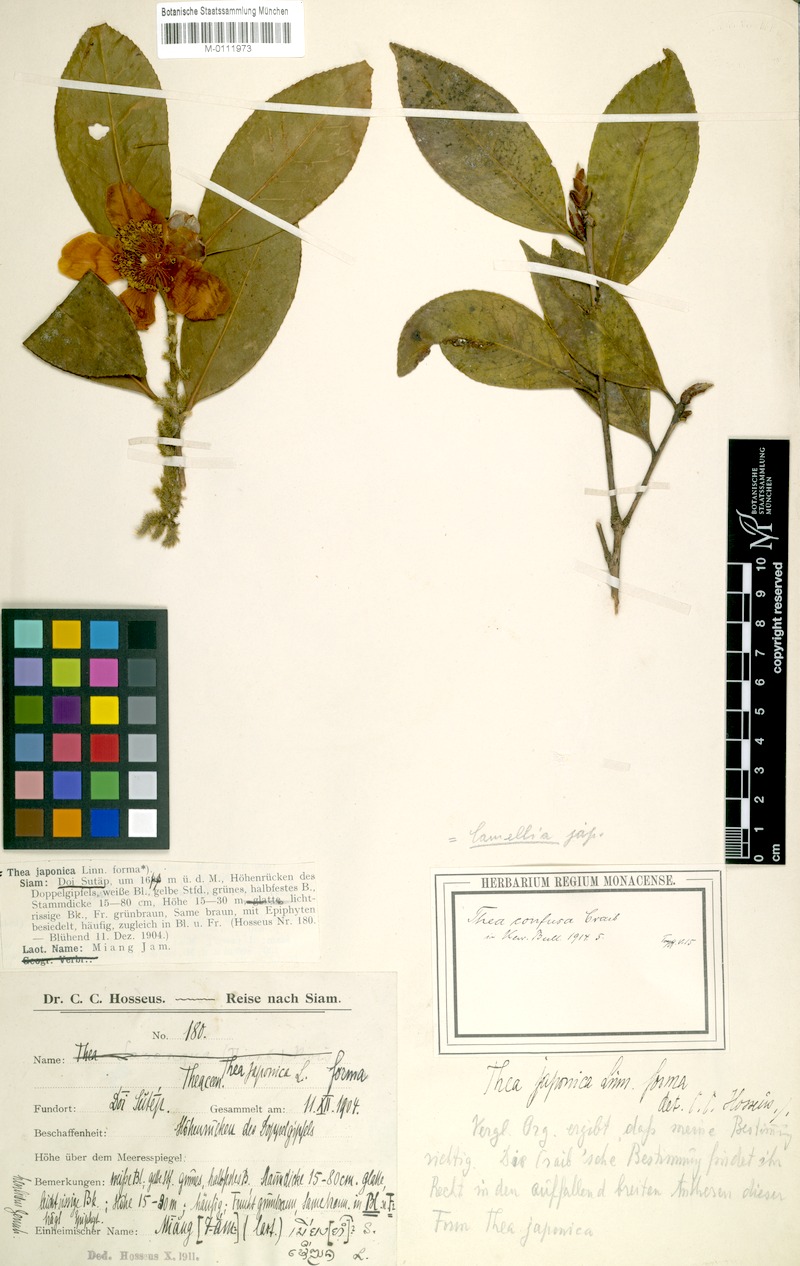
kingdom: Plantae
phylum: Tracheophyta
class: Magnoliopsida
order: Ericales
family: Theaceae
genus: Camellia
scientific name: Camellia kissii
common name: Nepal camellia
